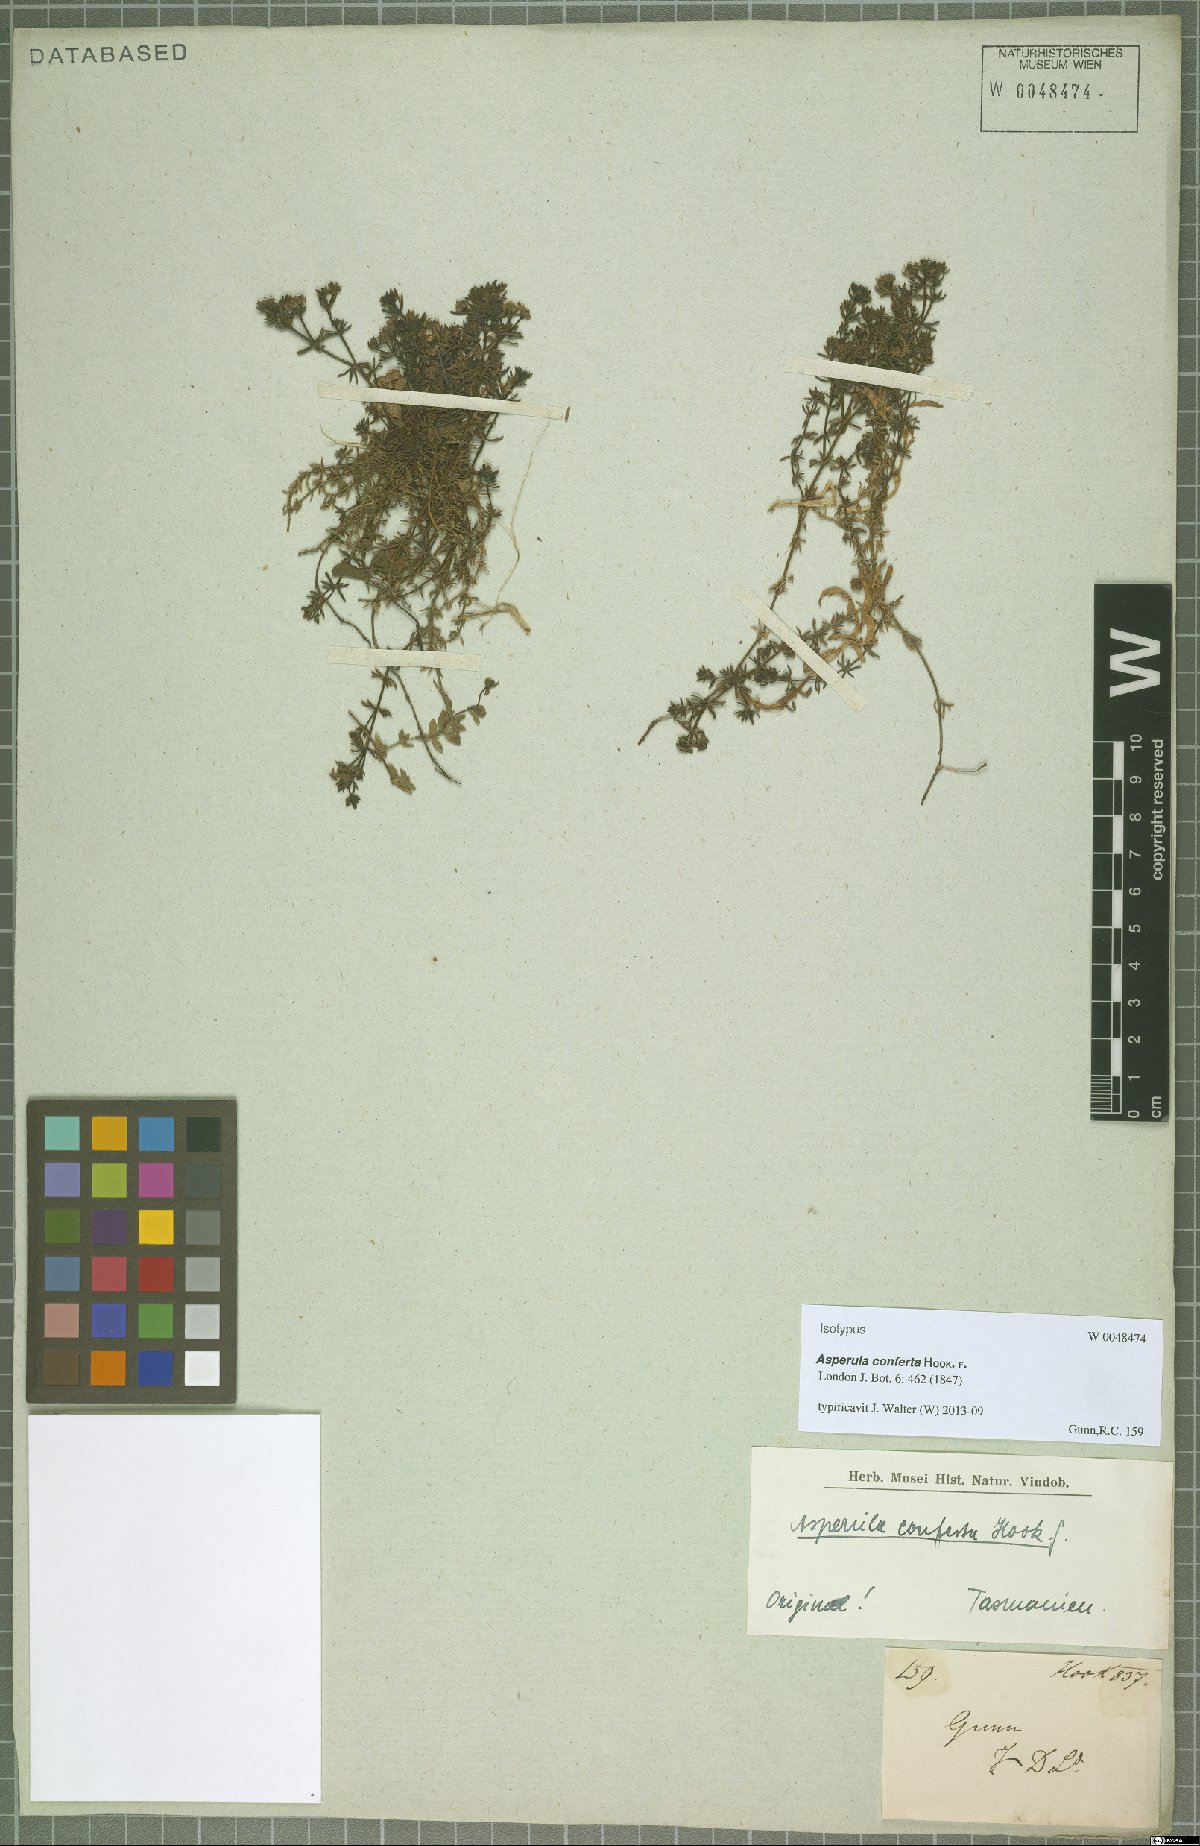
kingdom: Plantae
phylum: Tracheophyta
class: Magnoliopsida
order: Gentianales
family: Rubiaceae
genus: Asperula
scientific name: Asperula conferta
